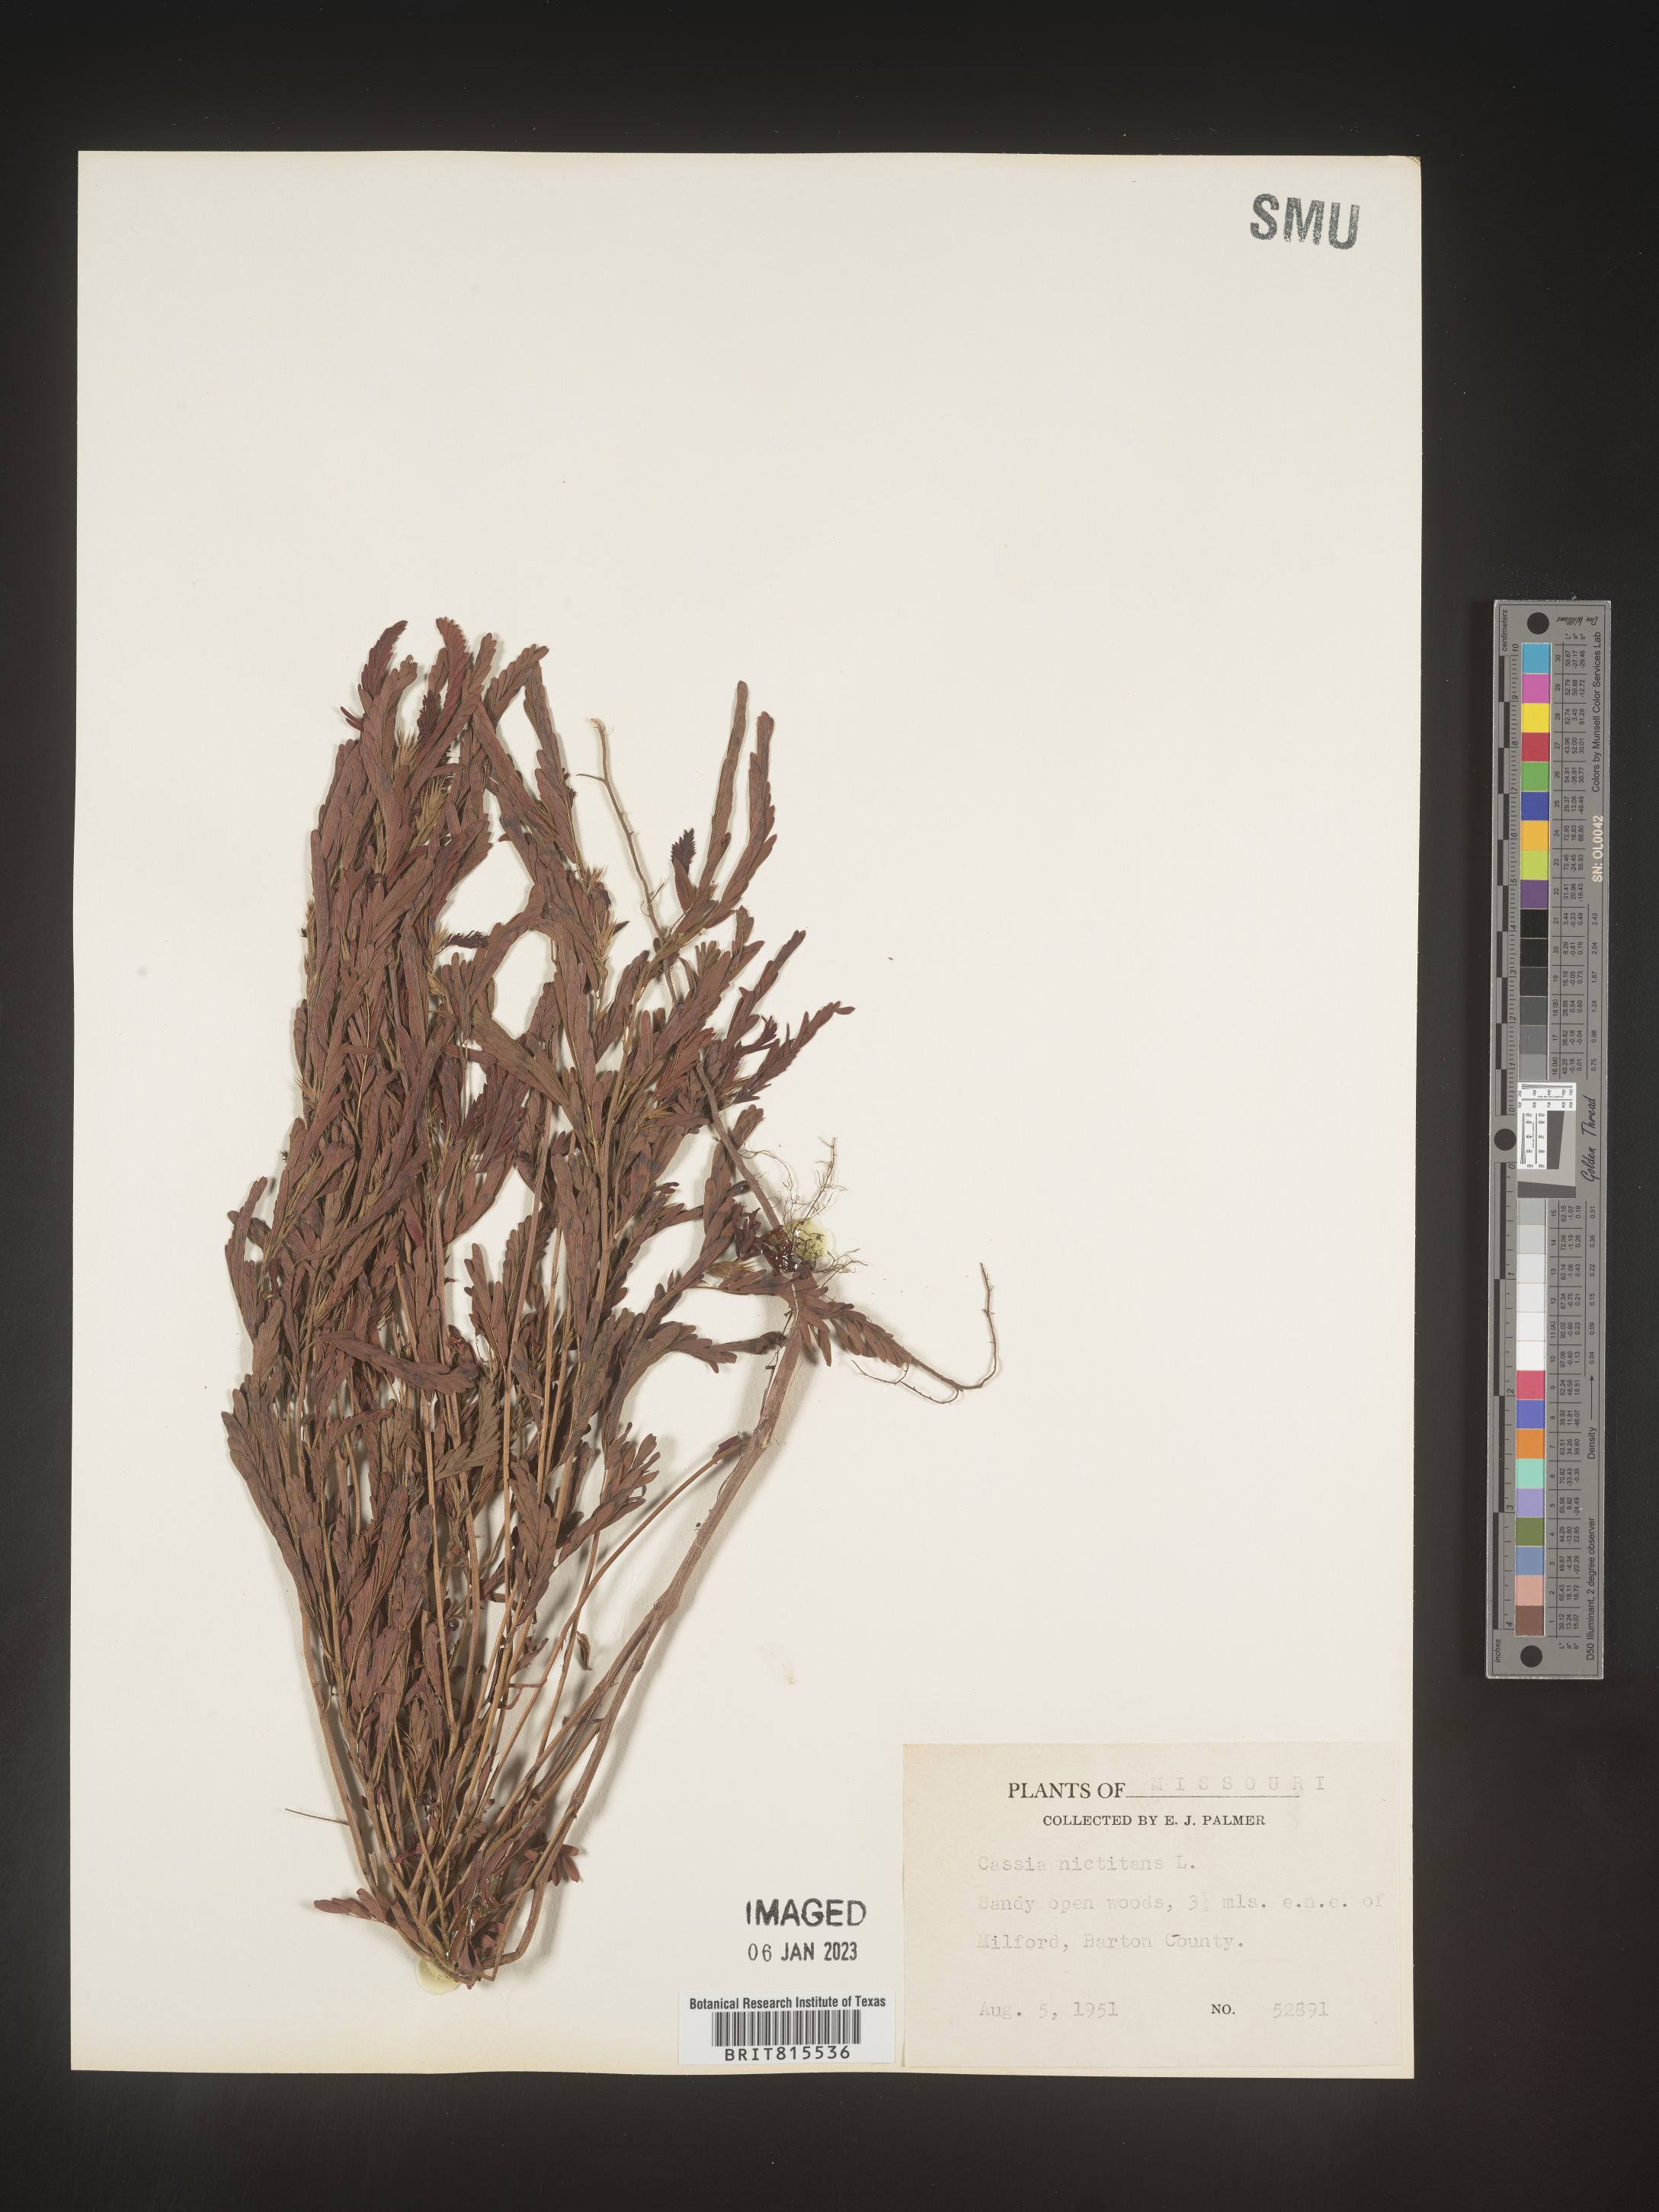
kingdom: Plantae
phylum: Tracheophyta
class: Magnoliopsida
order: Fabales
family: Fabaceae
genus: Chamaecrista
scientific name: Chamaecrista nictitans
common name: Sensitive cassia
